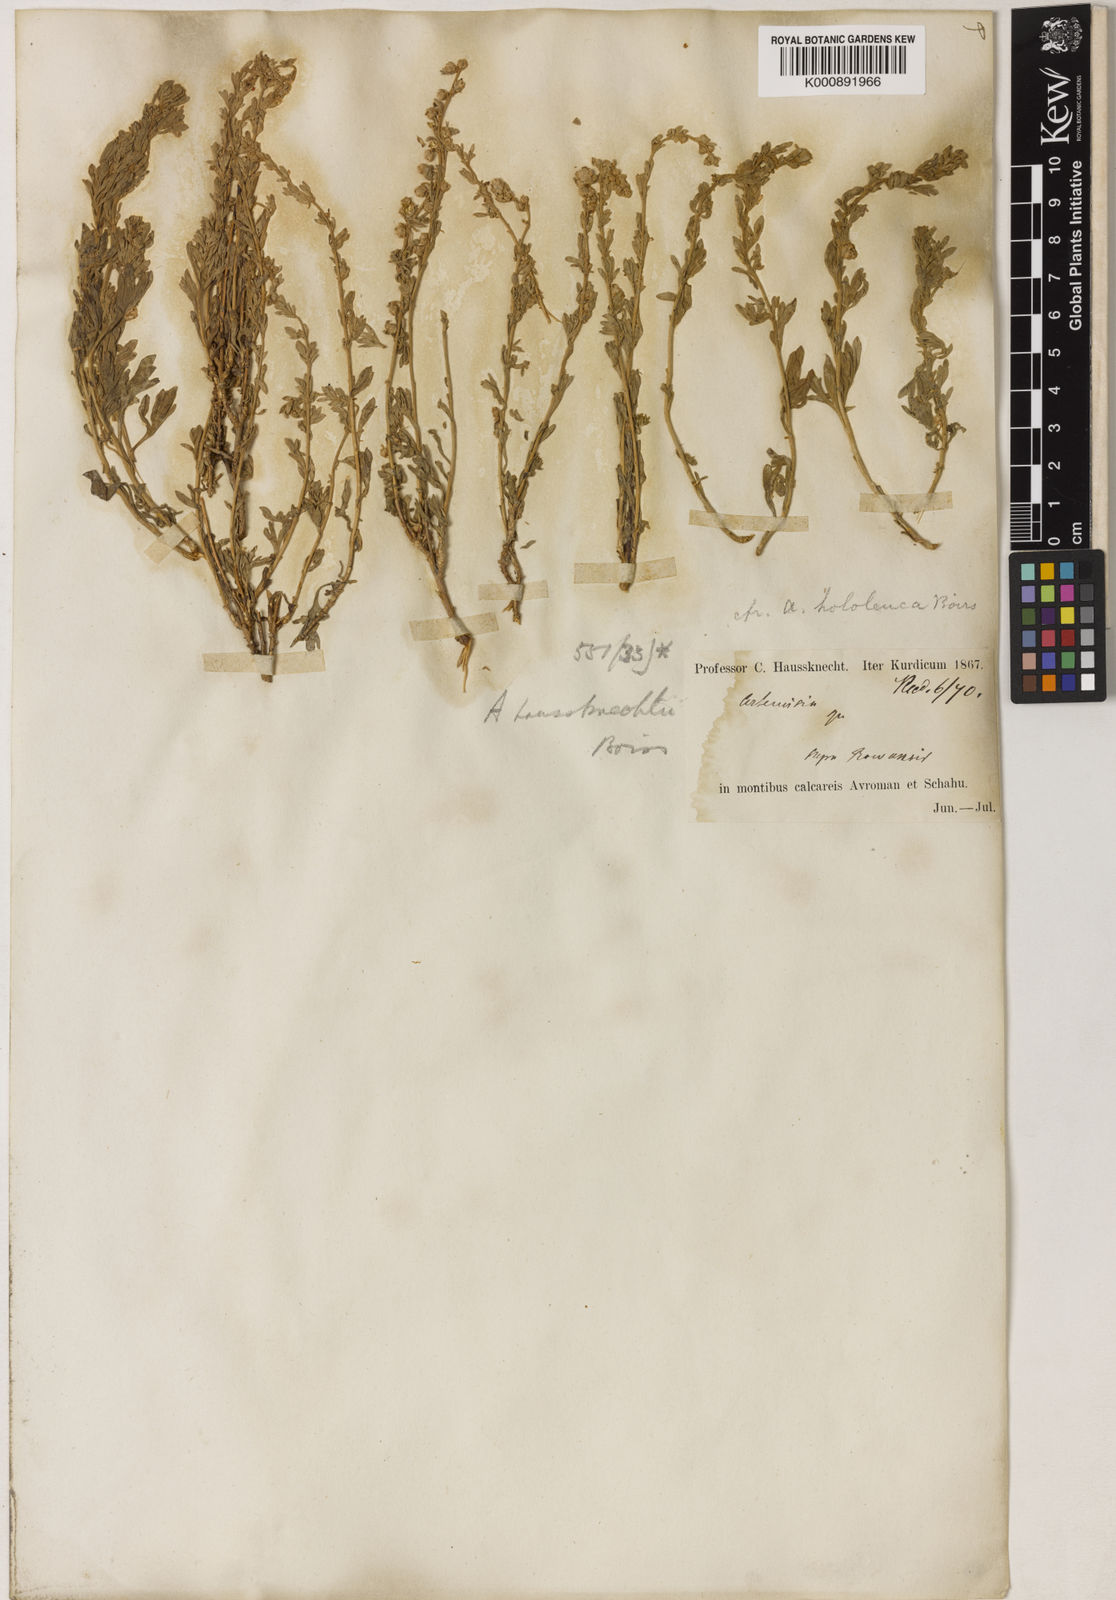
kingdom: Plantae
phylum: Tracheophyta
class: Magnoliopsida
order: Asterales
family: Asteraceae
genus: Artemisia
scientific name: Artemisia haussknechtii
